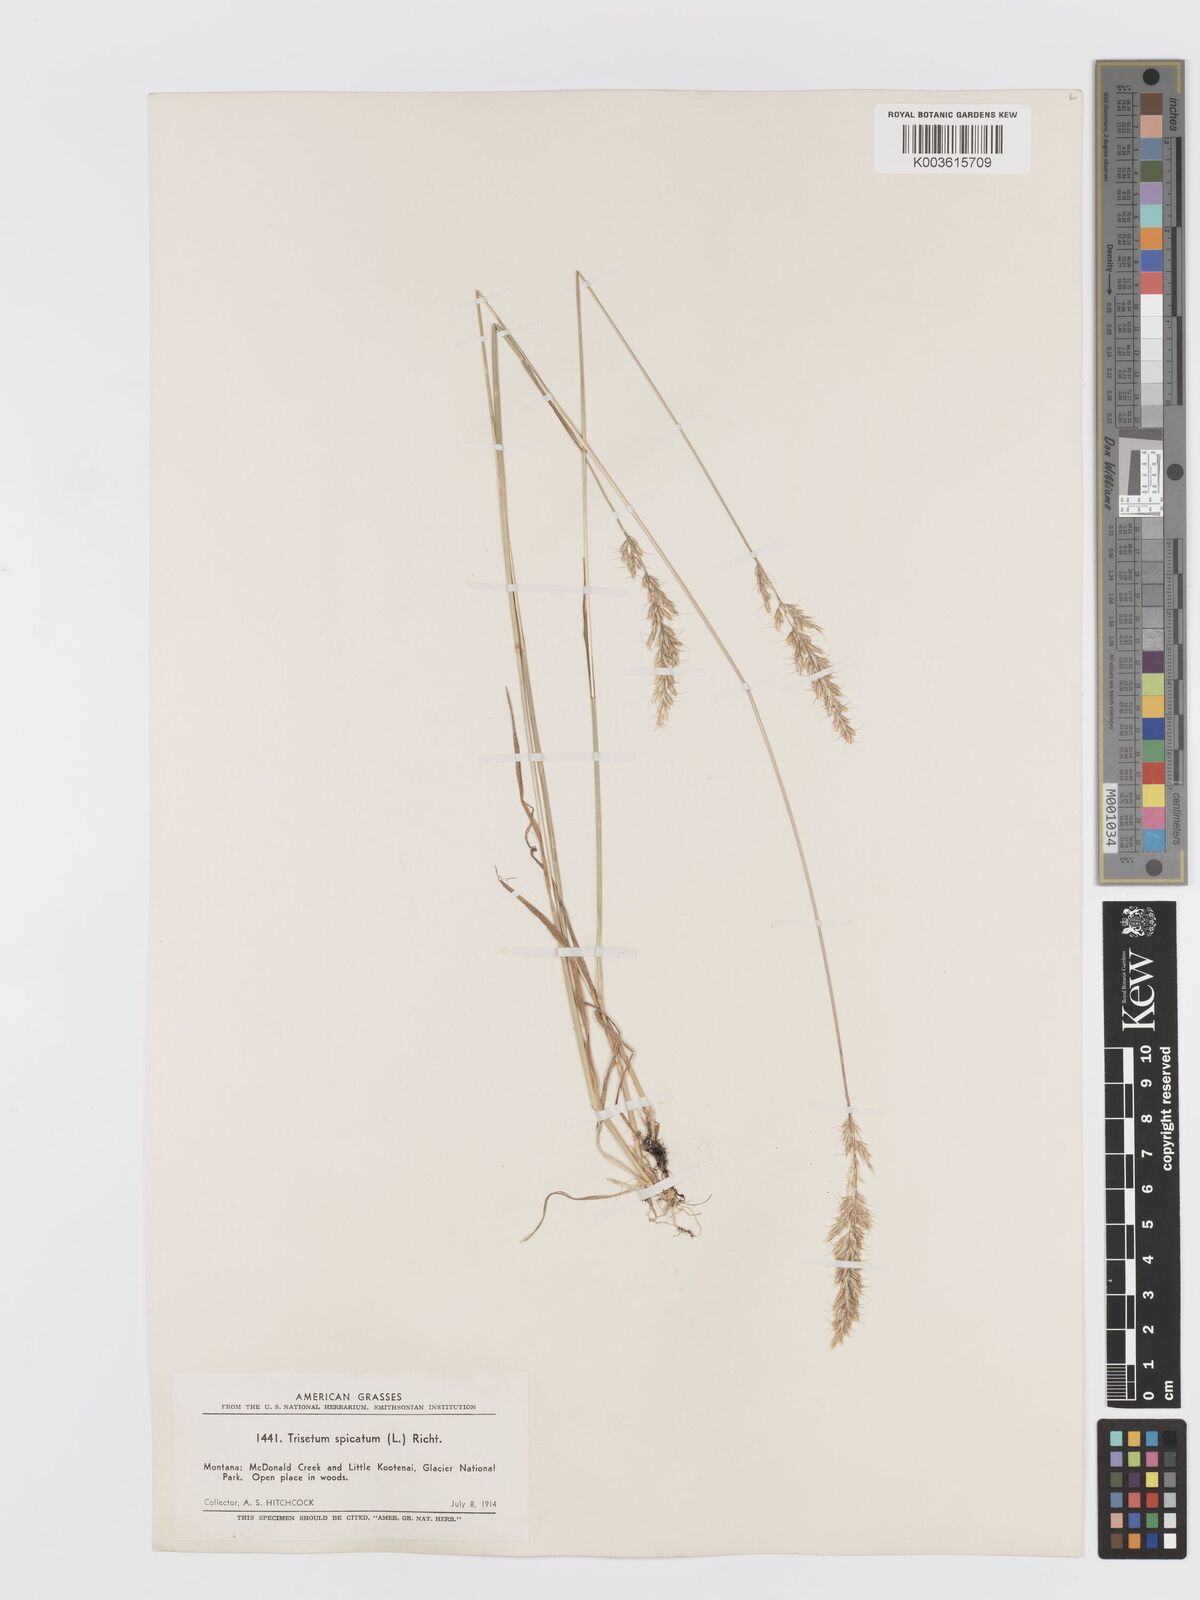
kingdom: Plantae
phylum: Tracheophyta
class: Liliopsida
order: Poales
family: Poaceae
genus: Koeleria
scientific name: Koeleria spicata
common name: Mountain trisetum
